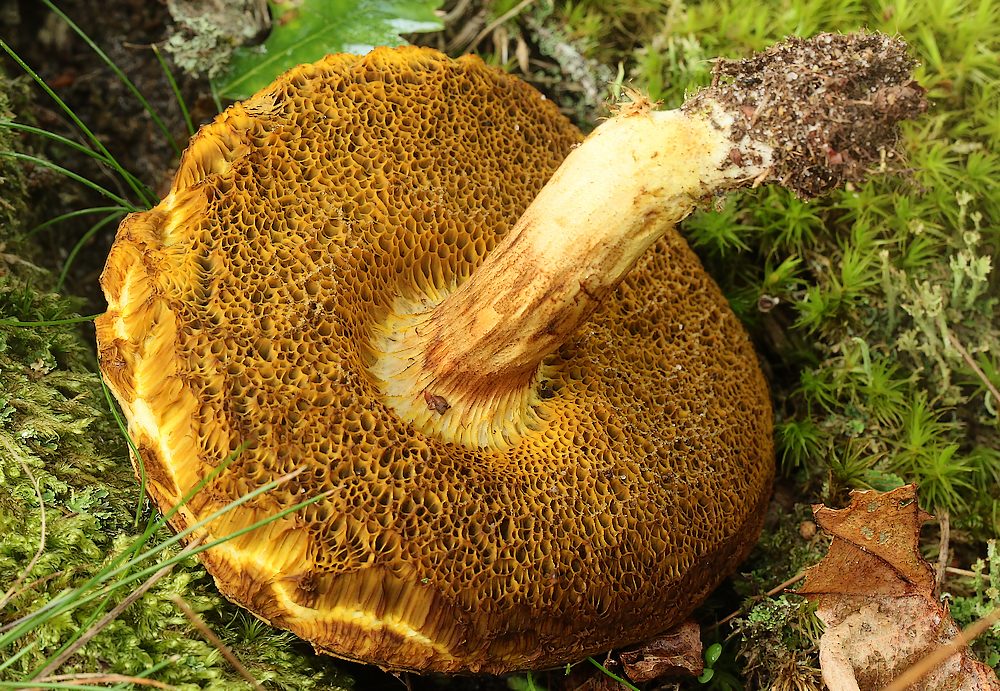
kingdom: Fungi
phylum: Basidiomycota
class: Agaricomycetes
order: Boletales
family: Boletaceae
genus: Xerocomus
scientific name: Xerocomus ferrugineus
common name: vaskeskinds-rørhat
